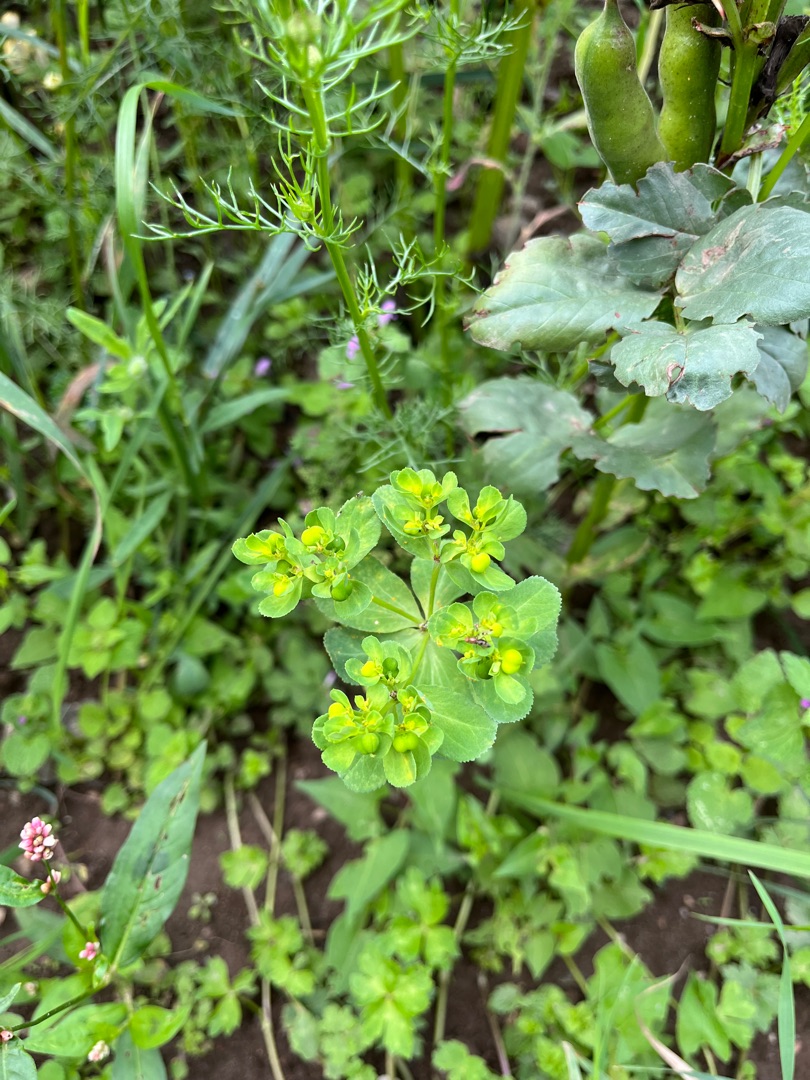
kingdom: Plantae
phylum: Tracheophyta
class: Magnoliopsida
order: Malpighiales
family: Euphorbiaceae
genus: Euphorbia
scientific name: Euphorbia helioscopia
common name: Skærm-vortemælk
